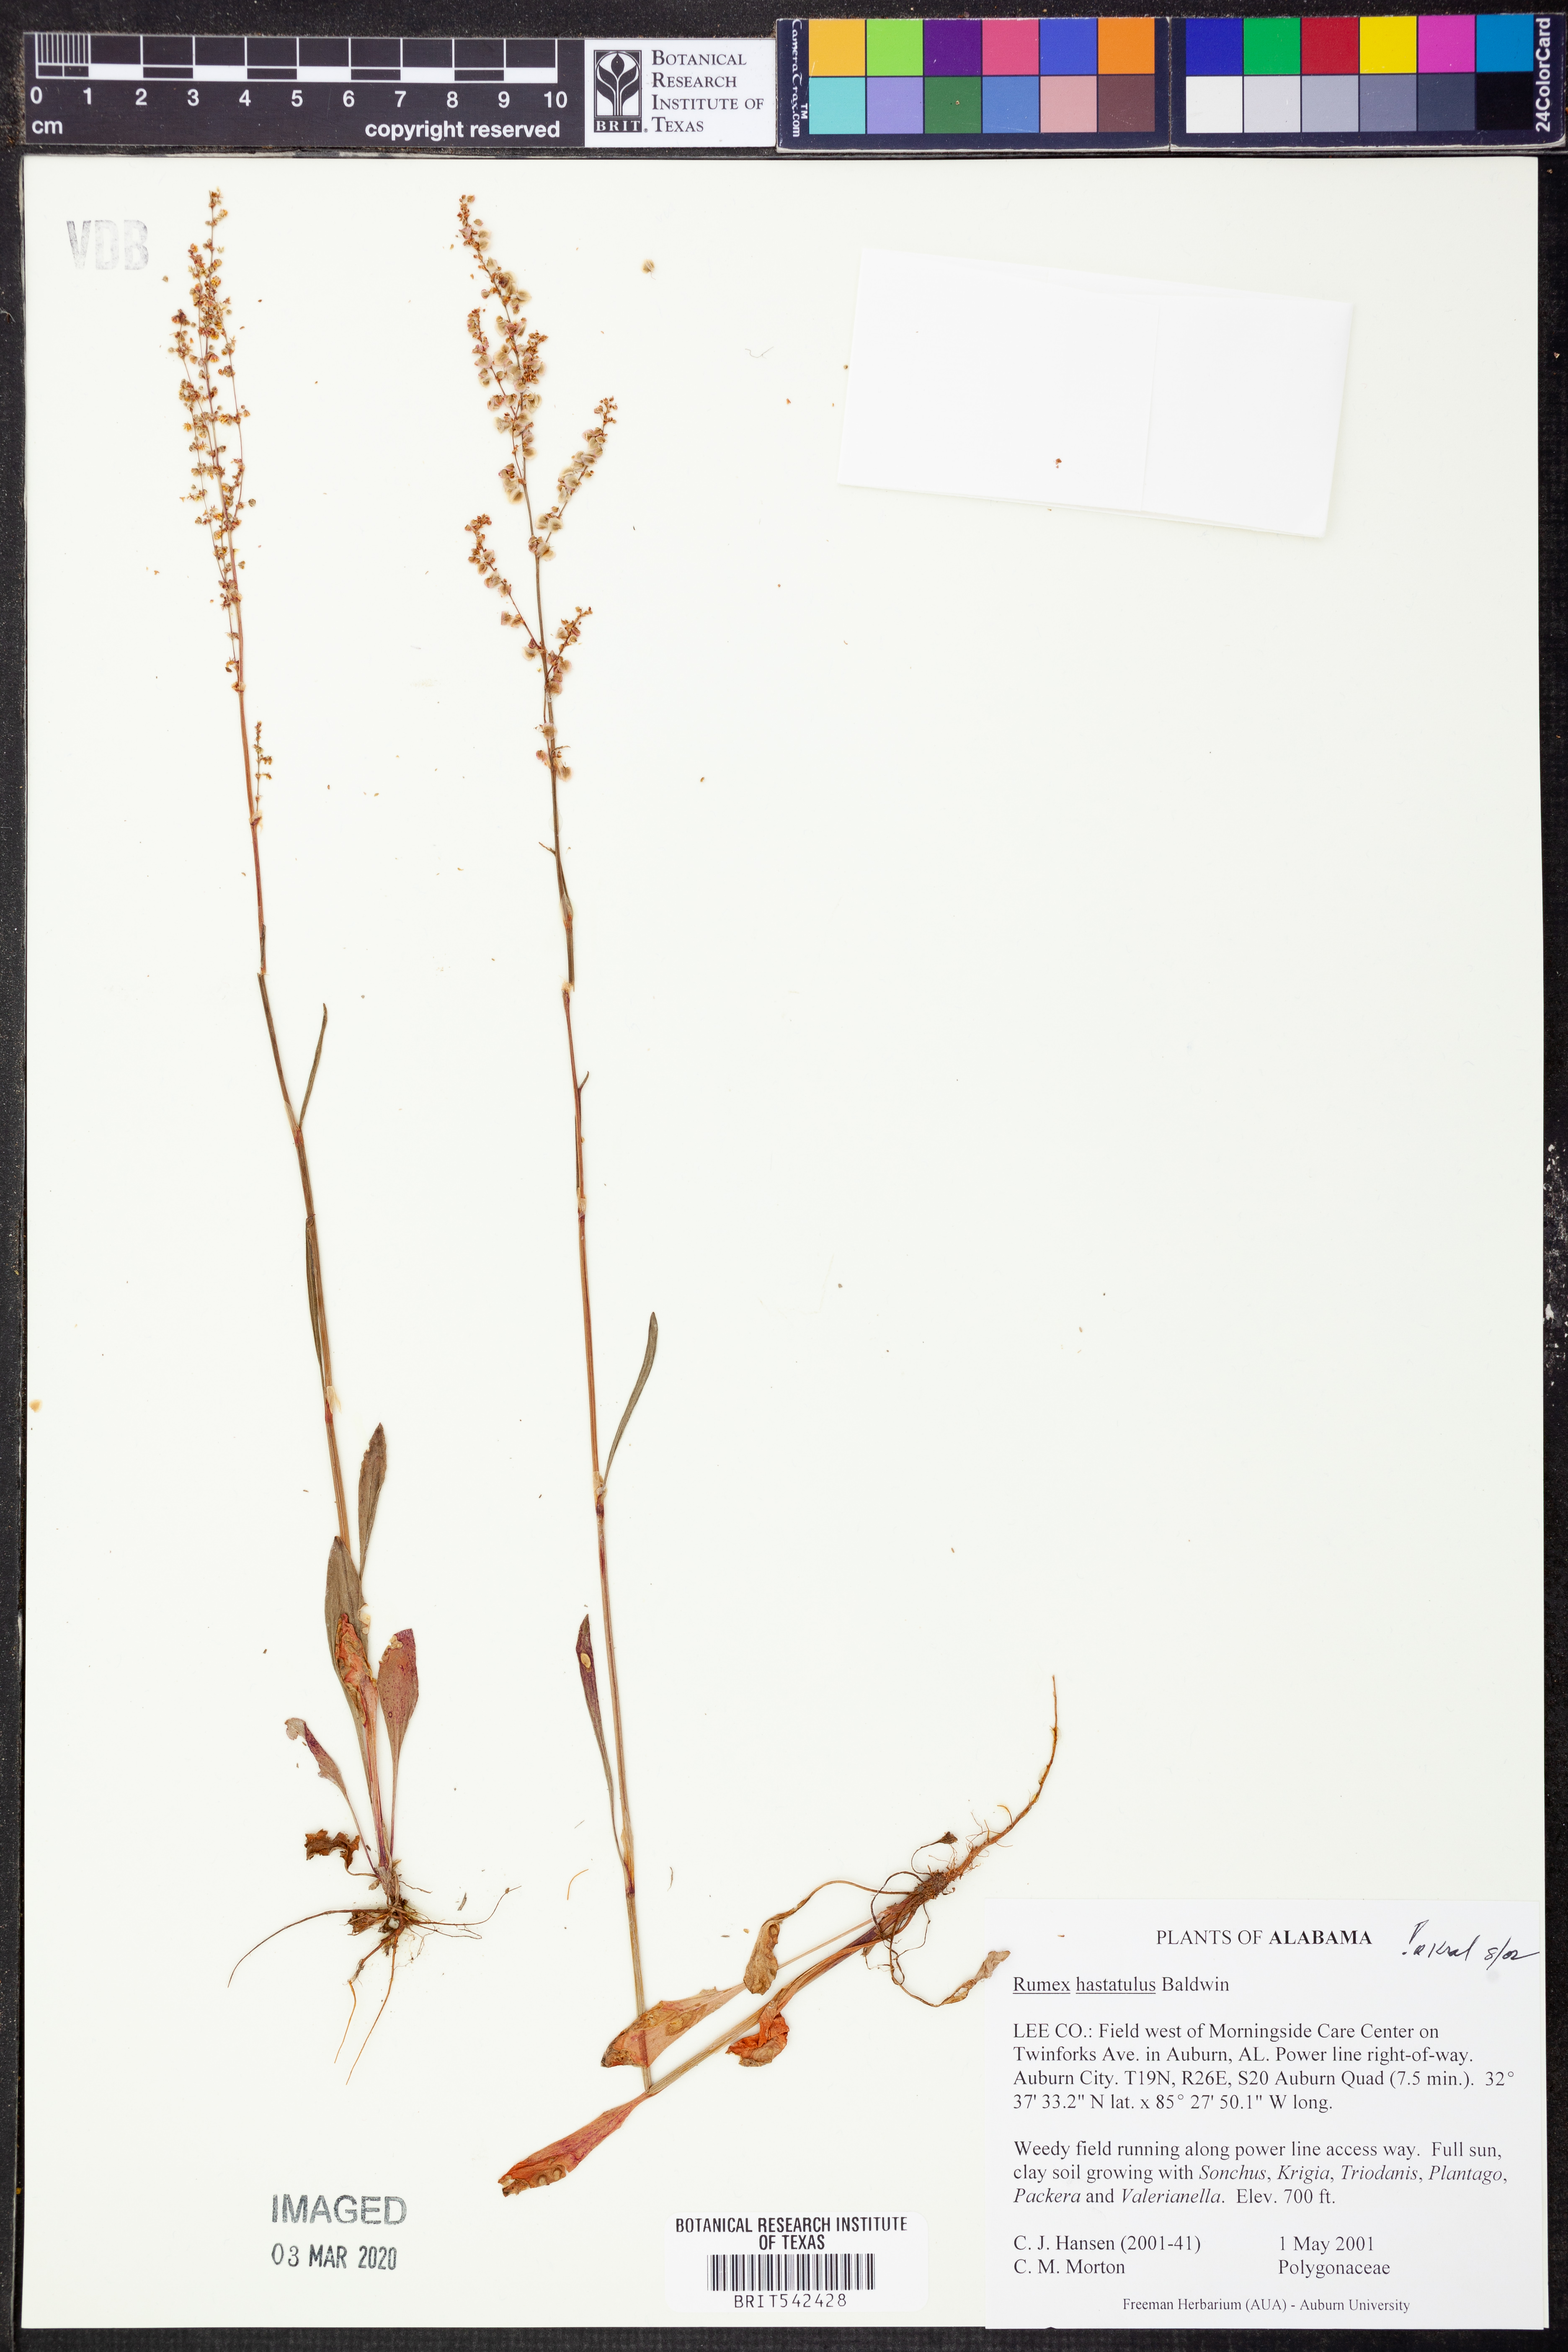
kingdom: Plantae
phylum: Tracheophyta
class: Magnoliopsida
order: Caryophyllales
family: Polygonaceae
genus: Rumex
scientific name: Rumex hastatulus
